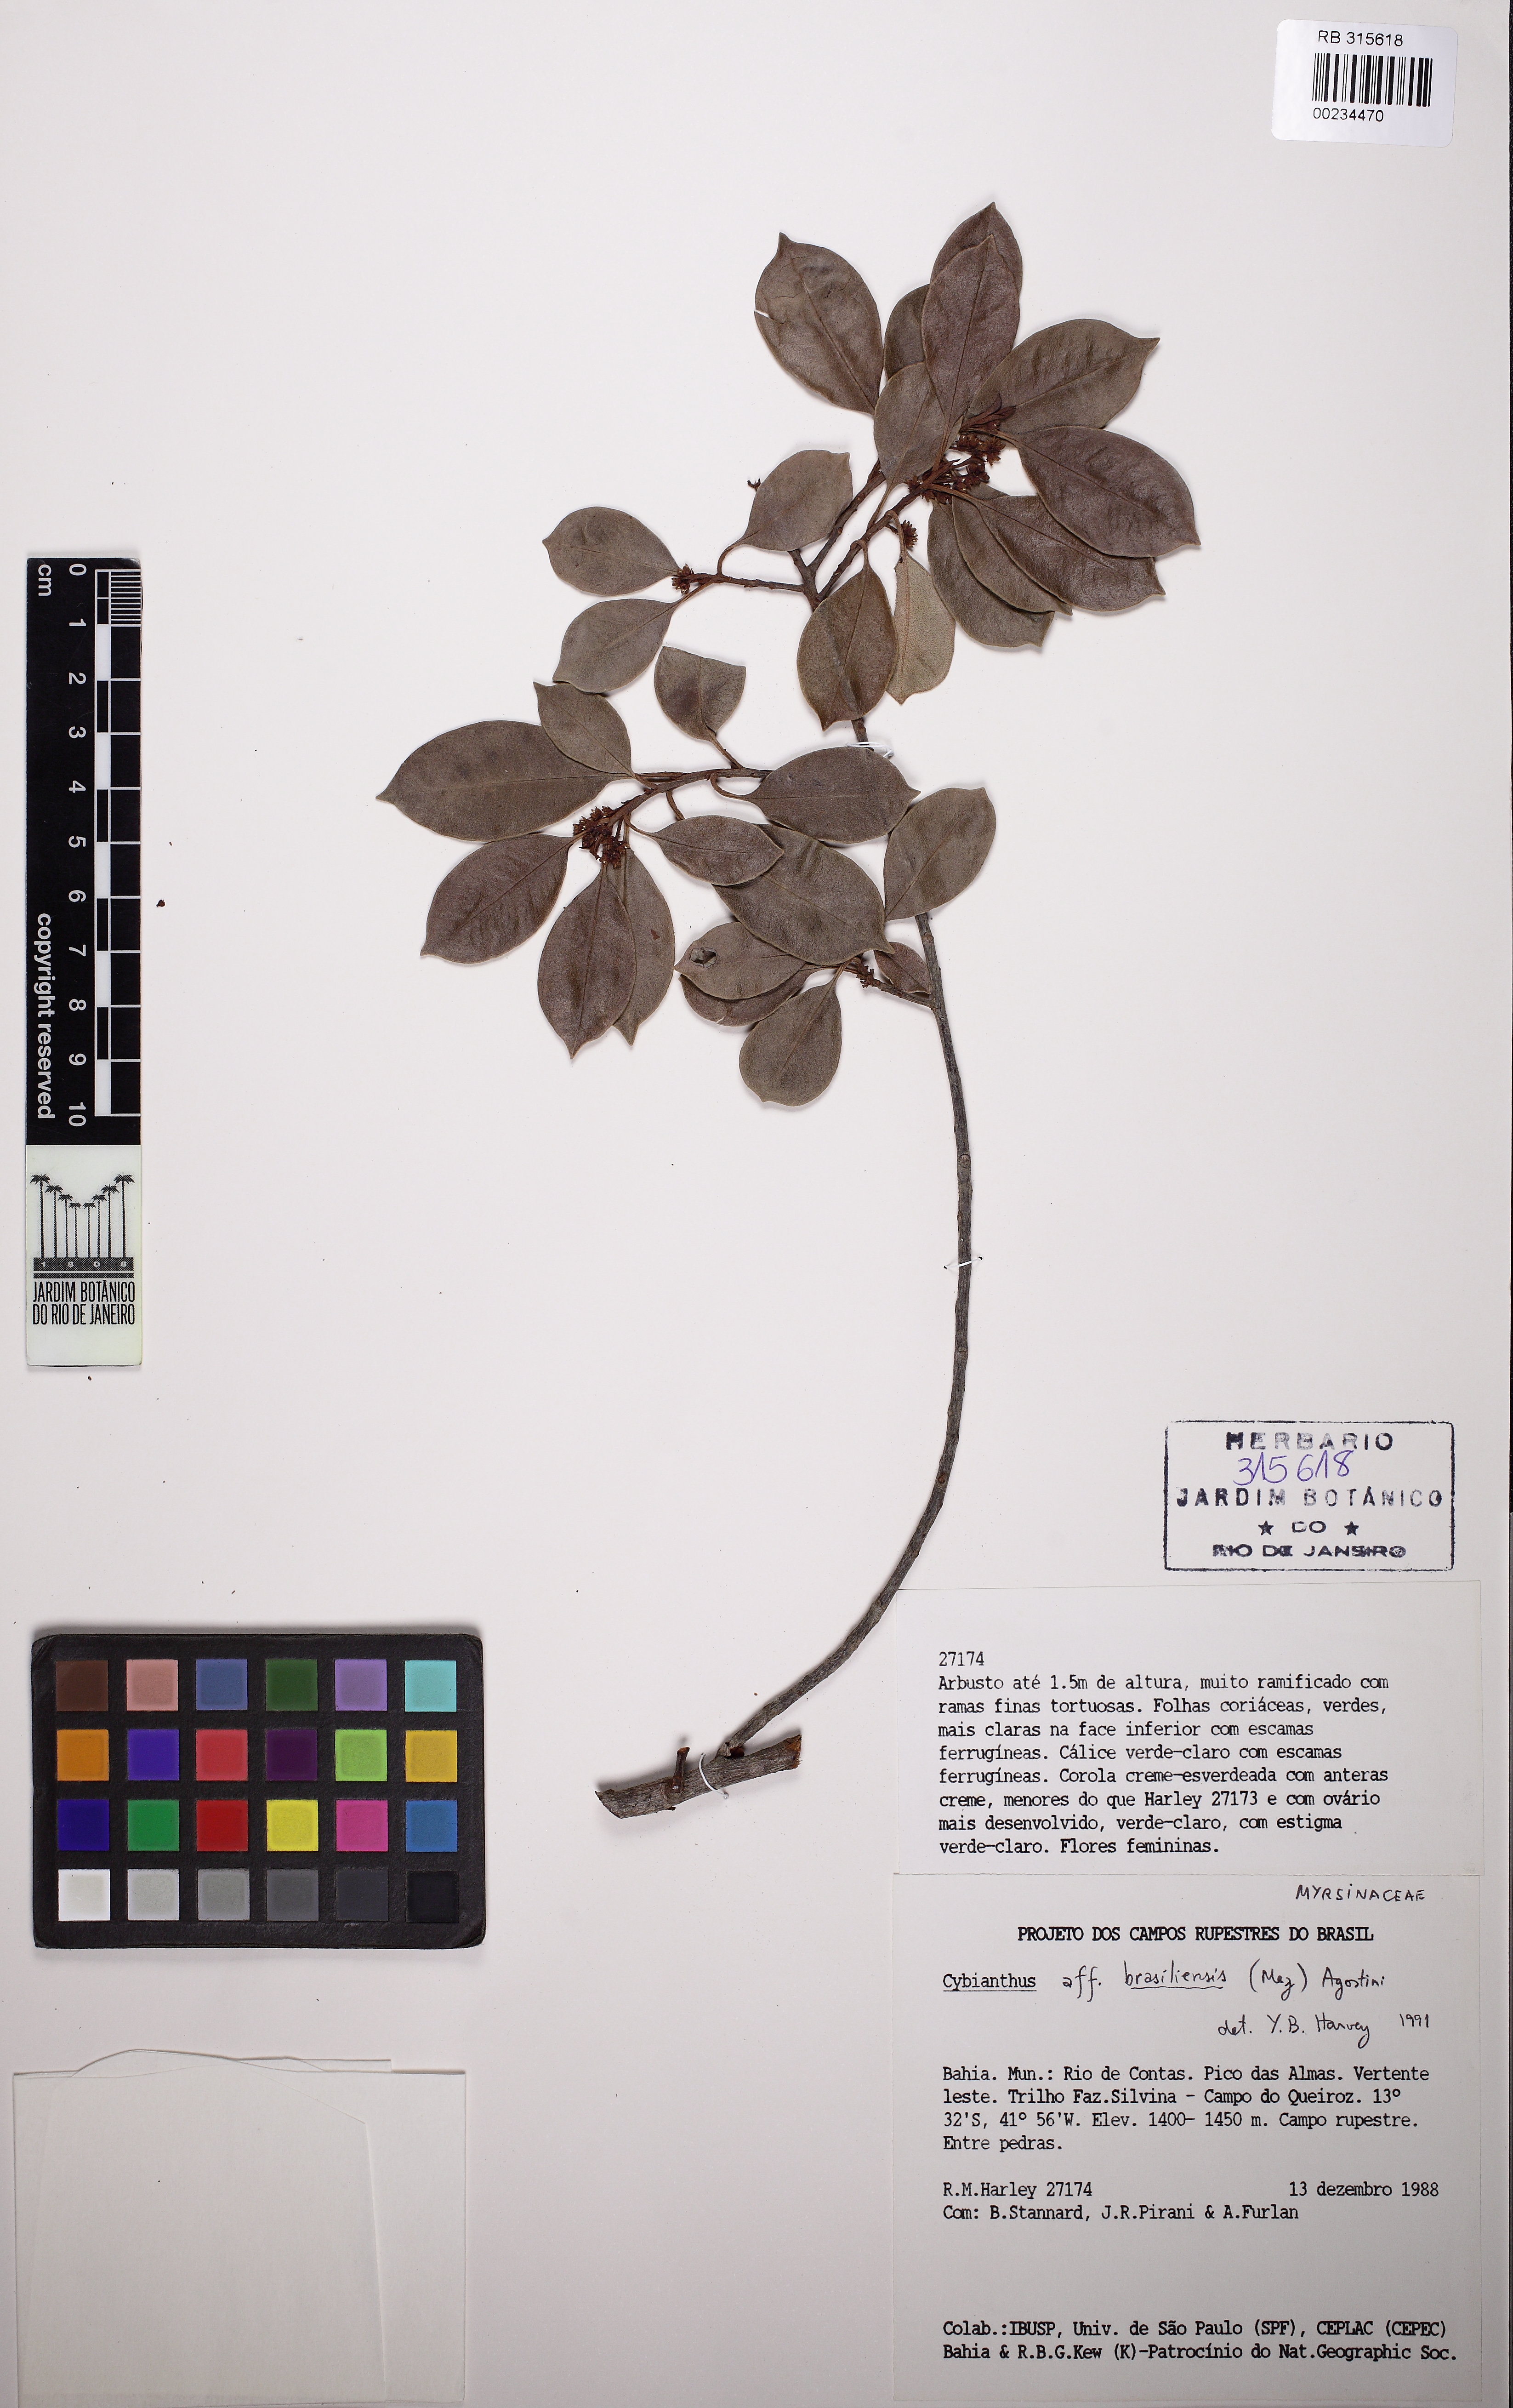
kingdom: Plantae
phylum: Tracheophyta
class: Magnoliopsida
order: Ericales
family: Primulaceae
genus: Cybianthus
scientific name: Cybianthus peruvianus
